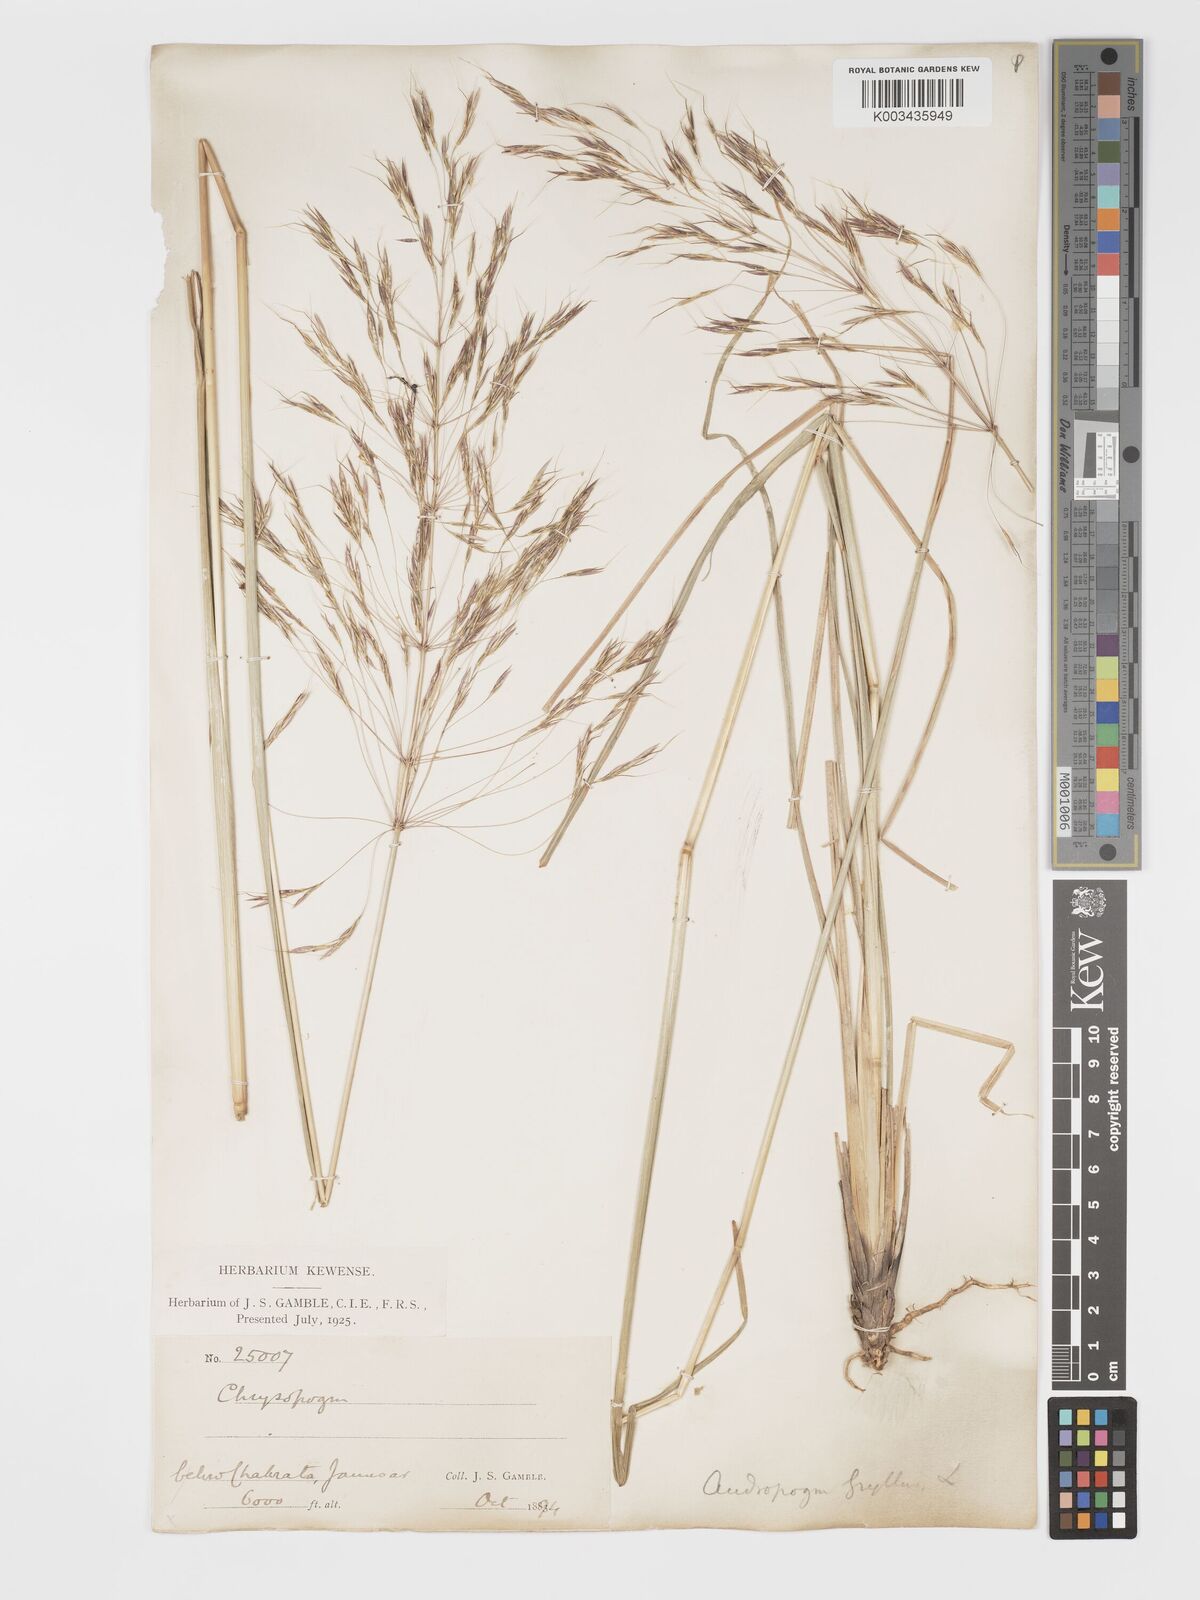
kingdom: Plantae
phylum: Tracheophyta
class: Liliopsida
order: Poales
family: Poaceae
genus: Chrysopogon
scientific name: Chrysopogon gryllus
